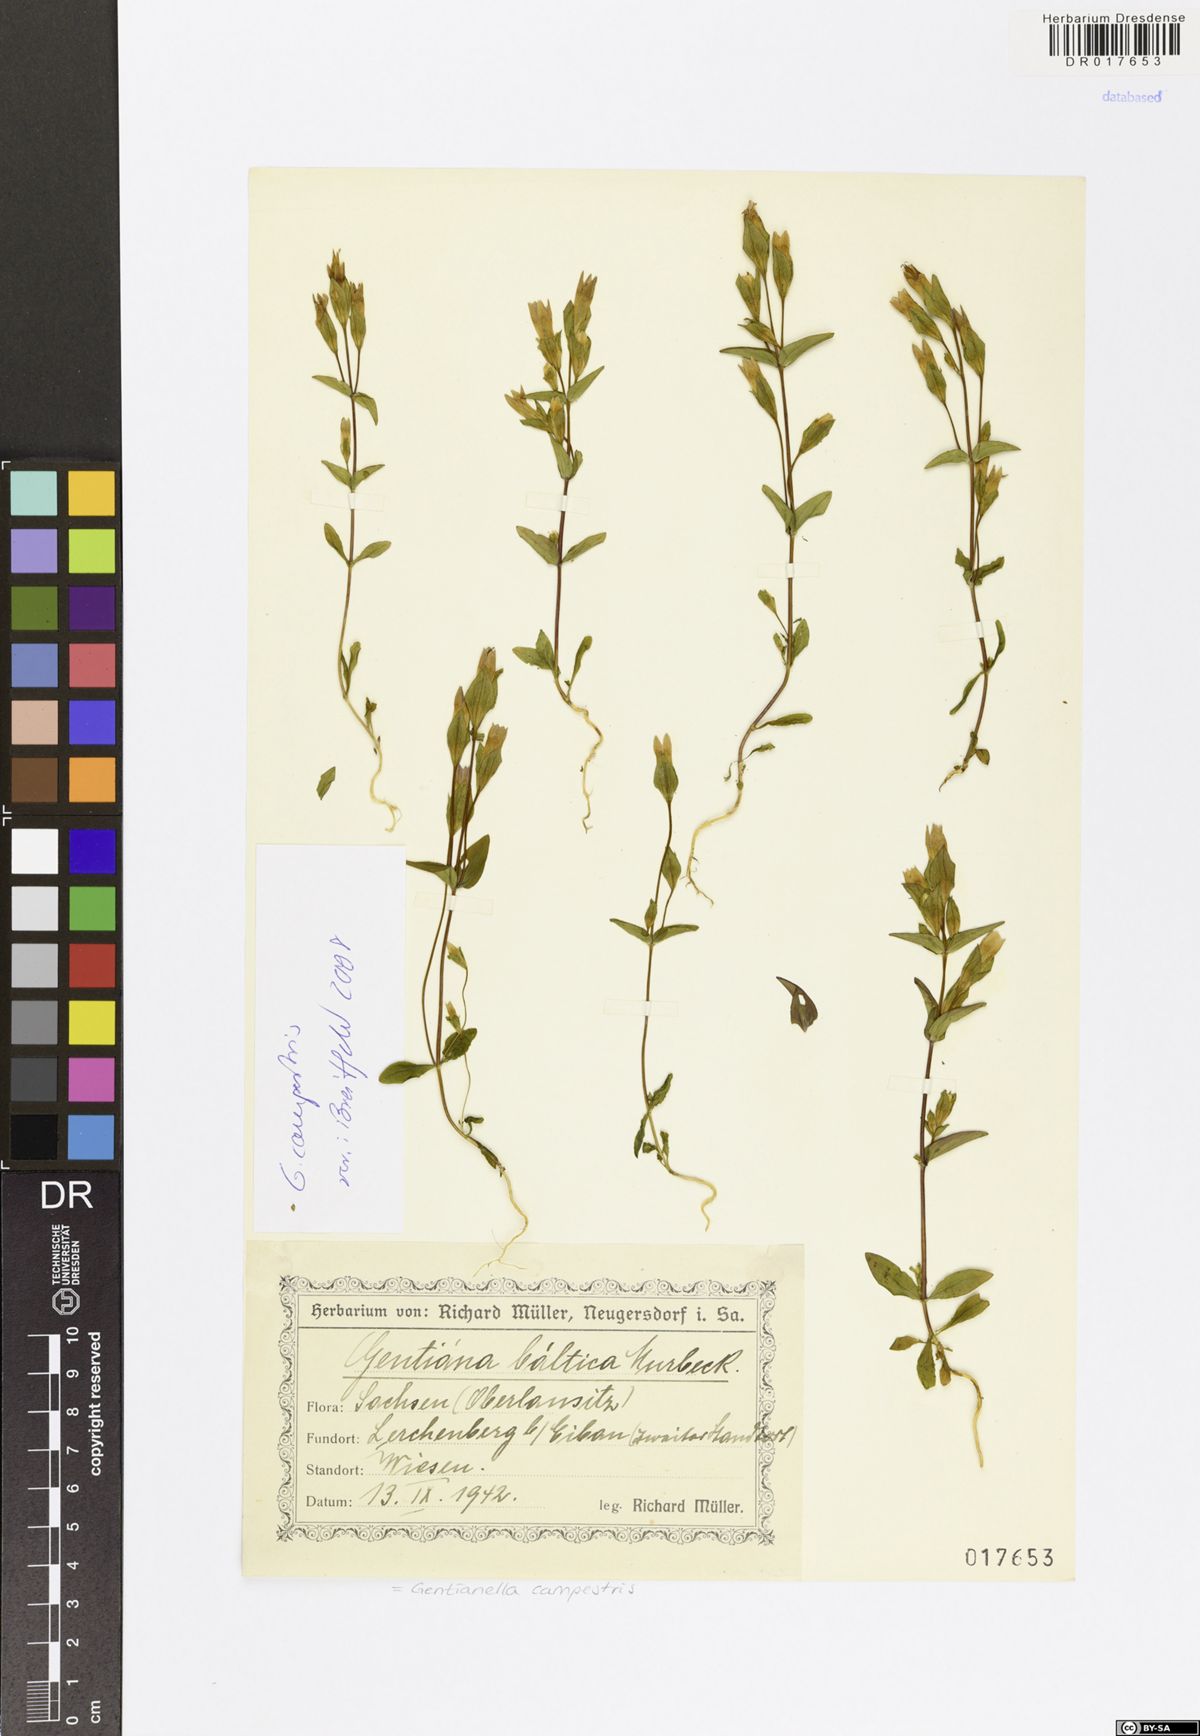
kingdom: Plantae
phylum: Tracheophyta
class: Magnoliopsida
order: Gentianales
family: Gentianaceae
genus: Gentianella
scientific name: Gentianella campestris
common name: Field gentian
